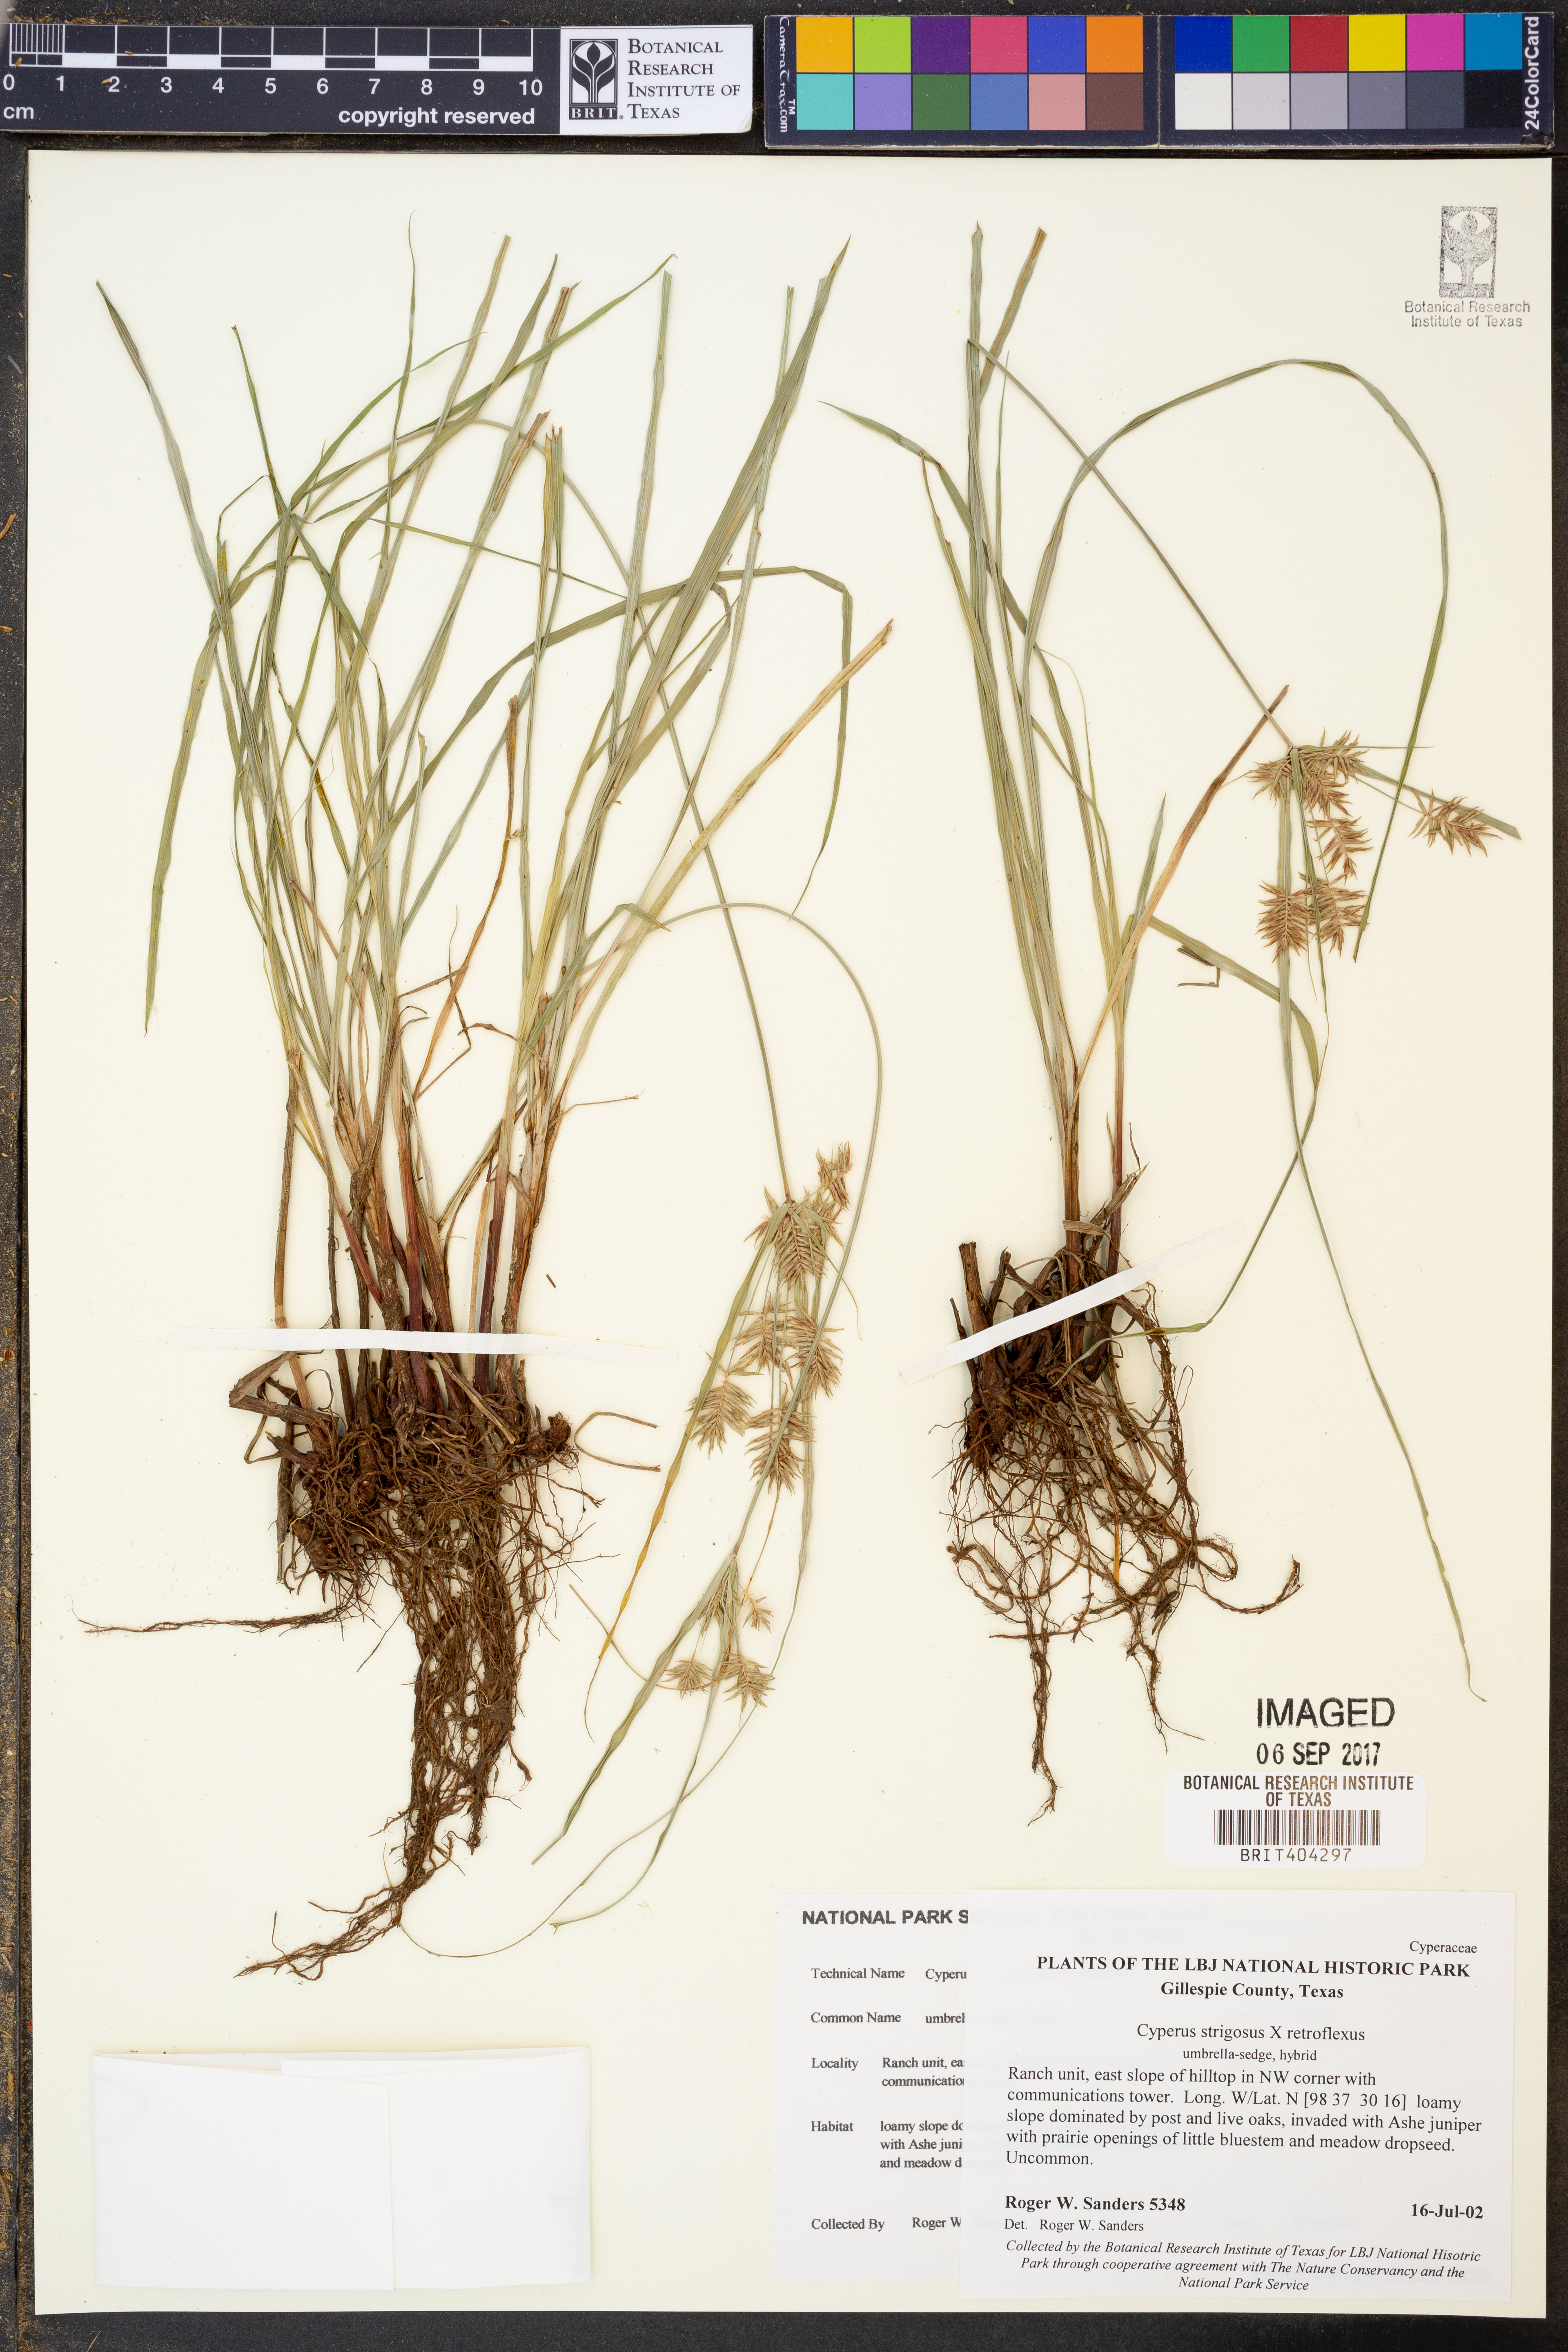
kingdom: Plantae
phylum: Tracheophyta
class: Liliopsida
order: Poales
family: Cyperaceae
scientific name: Cyperaceae
